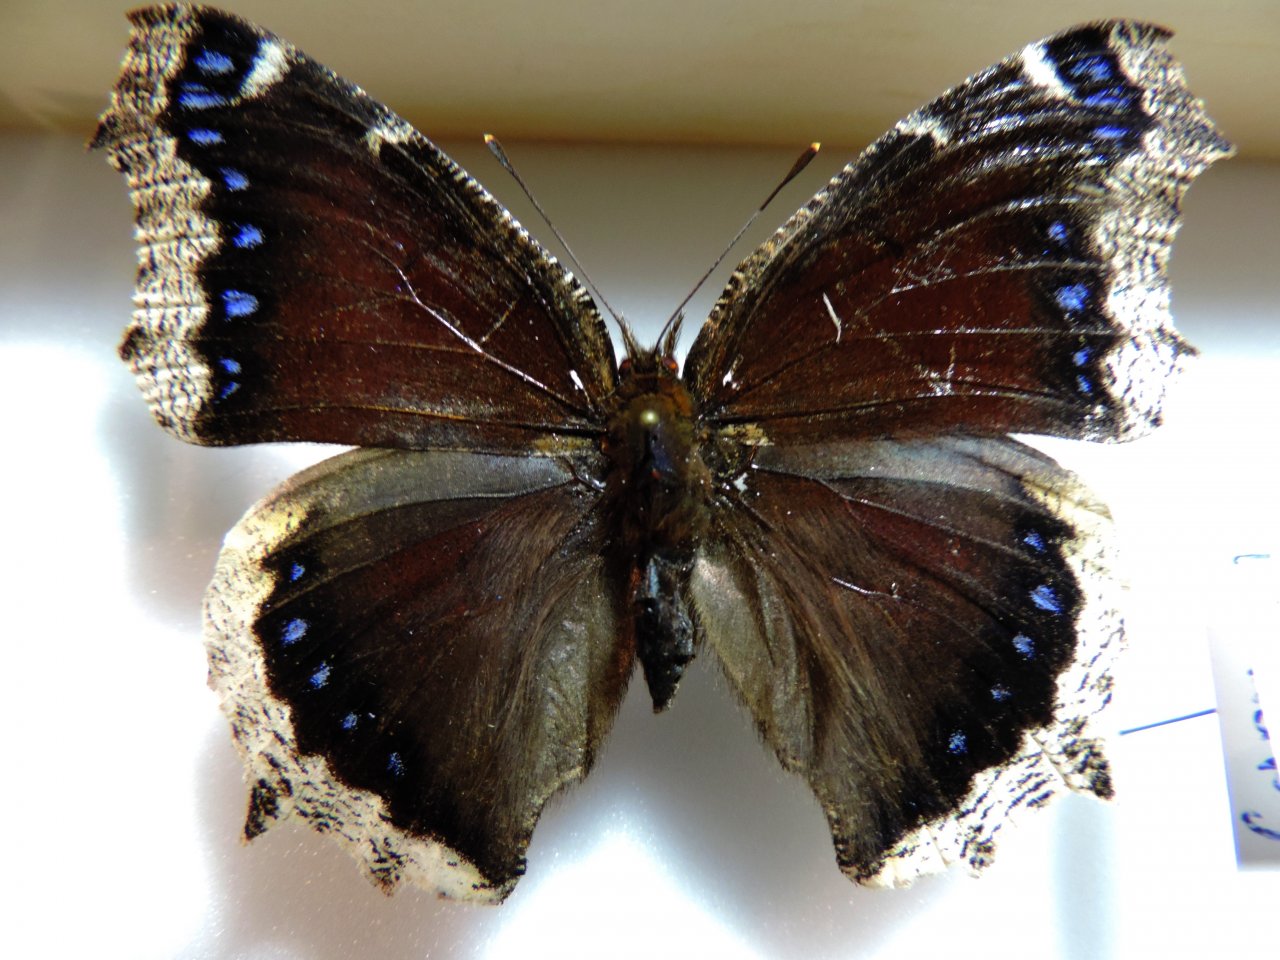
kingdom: Animalia
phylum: Arthropoda
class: Insecta
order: Lepidoptera
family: Nymphalidae
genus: Nymphalis
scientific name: Nymphalis antiopa
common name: Mourning Cloak
